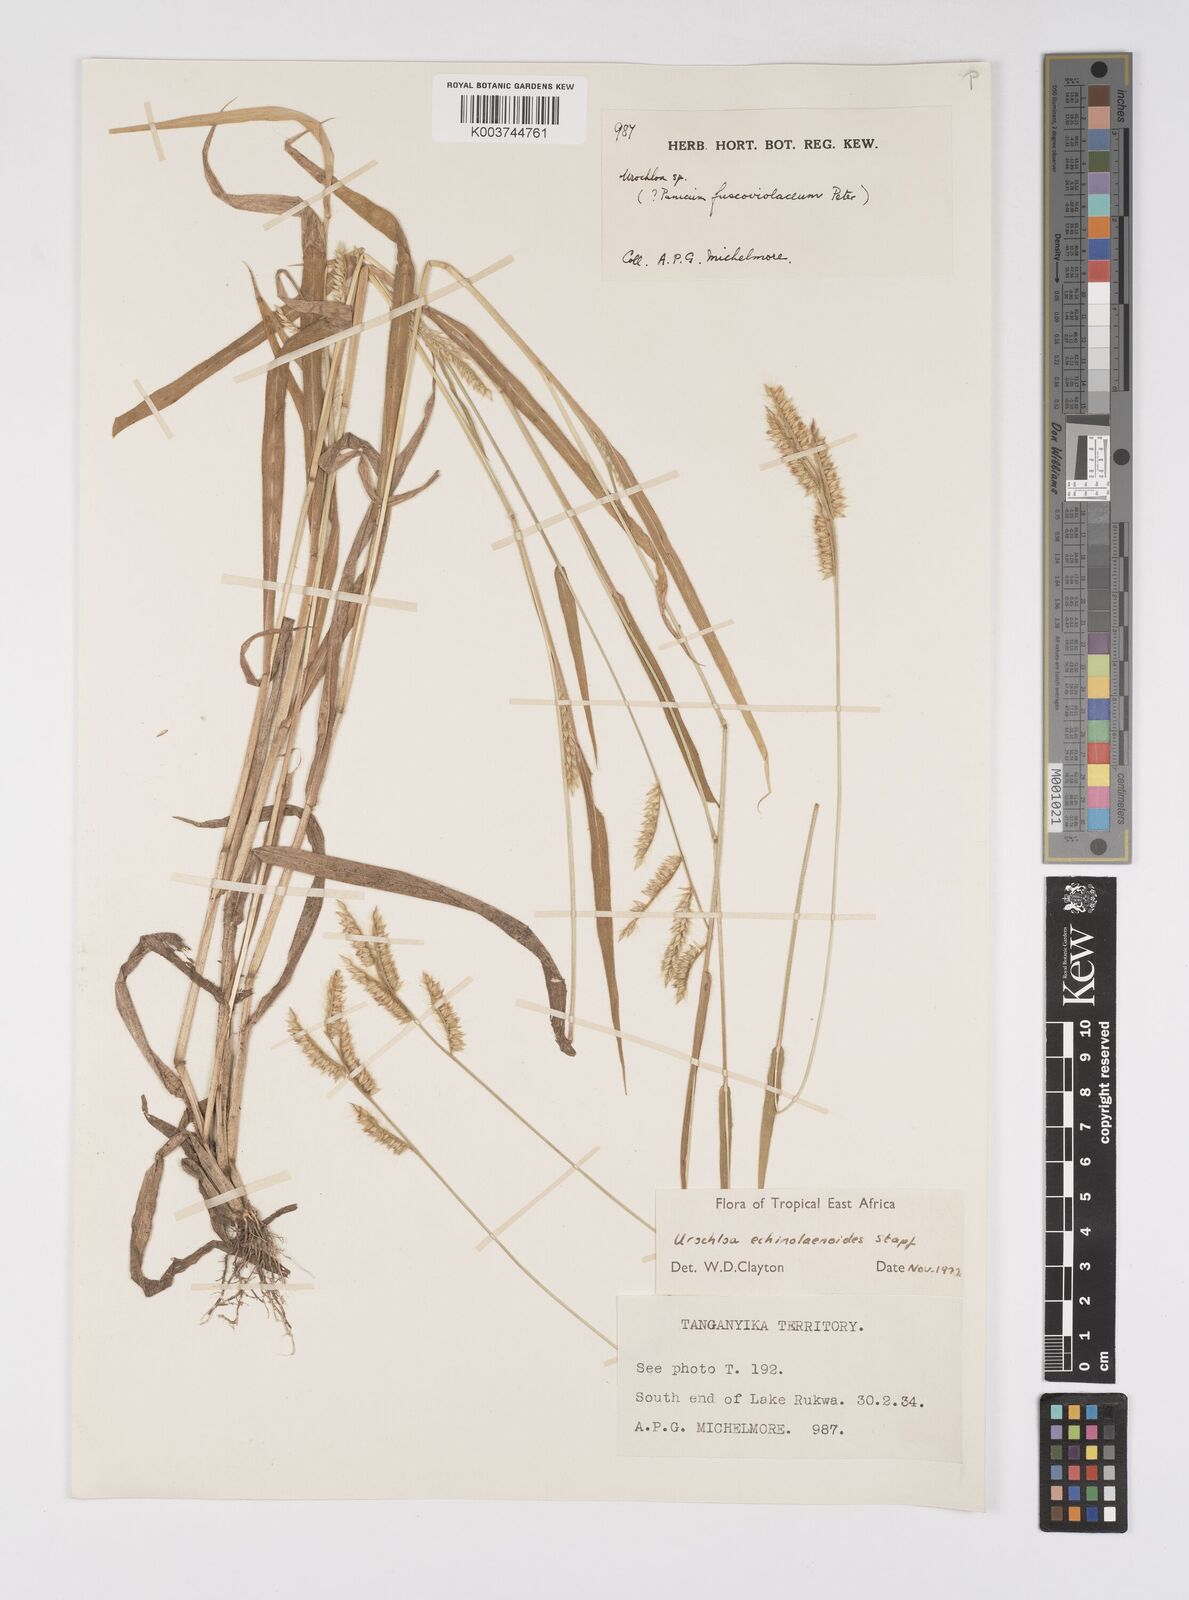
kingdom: Plantae
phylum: Tracheophyta
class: Liliopsida
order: Poales
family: Poaceae
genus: Urochloa
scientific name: Urochloa echinolaenoides
